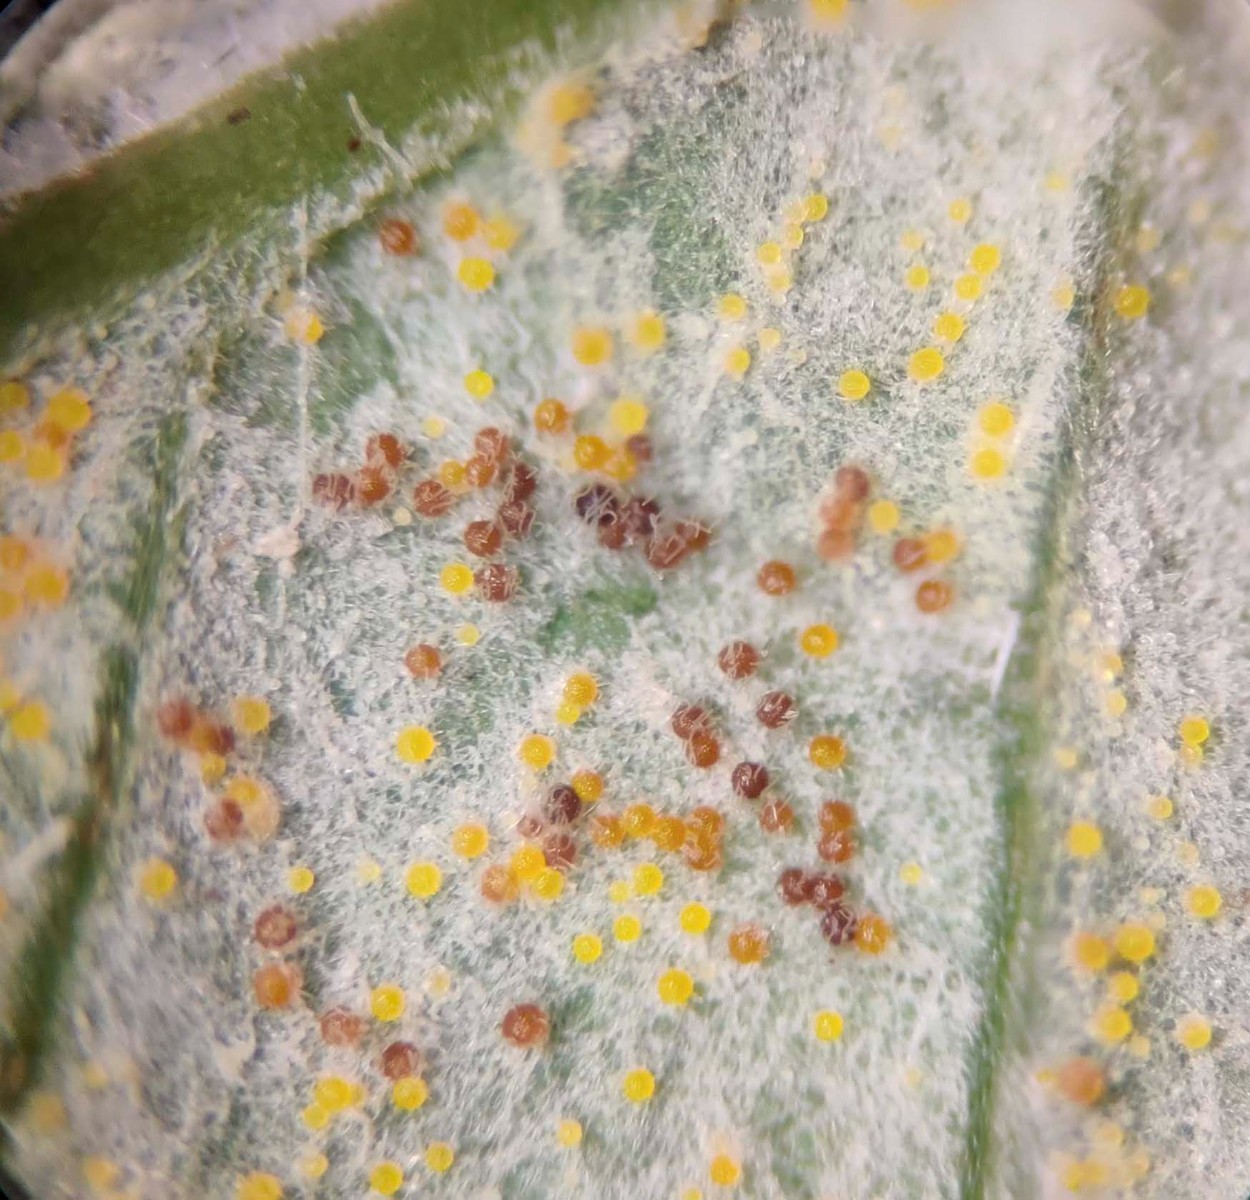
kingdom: Fungi
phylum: Ascomycota
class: Leotiomycetes
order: Helotiales
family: Erysiphaceae
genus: Erysiphe
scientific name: Erysiphe astragali
